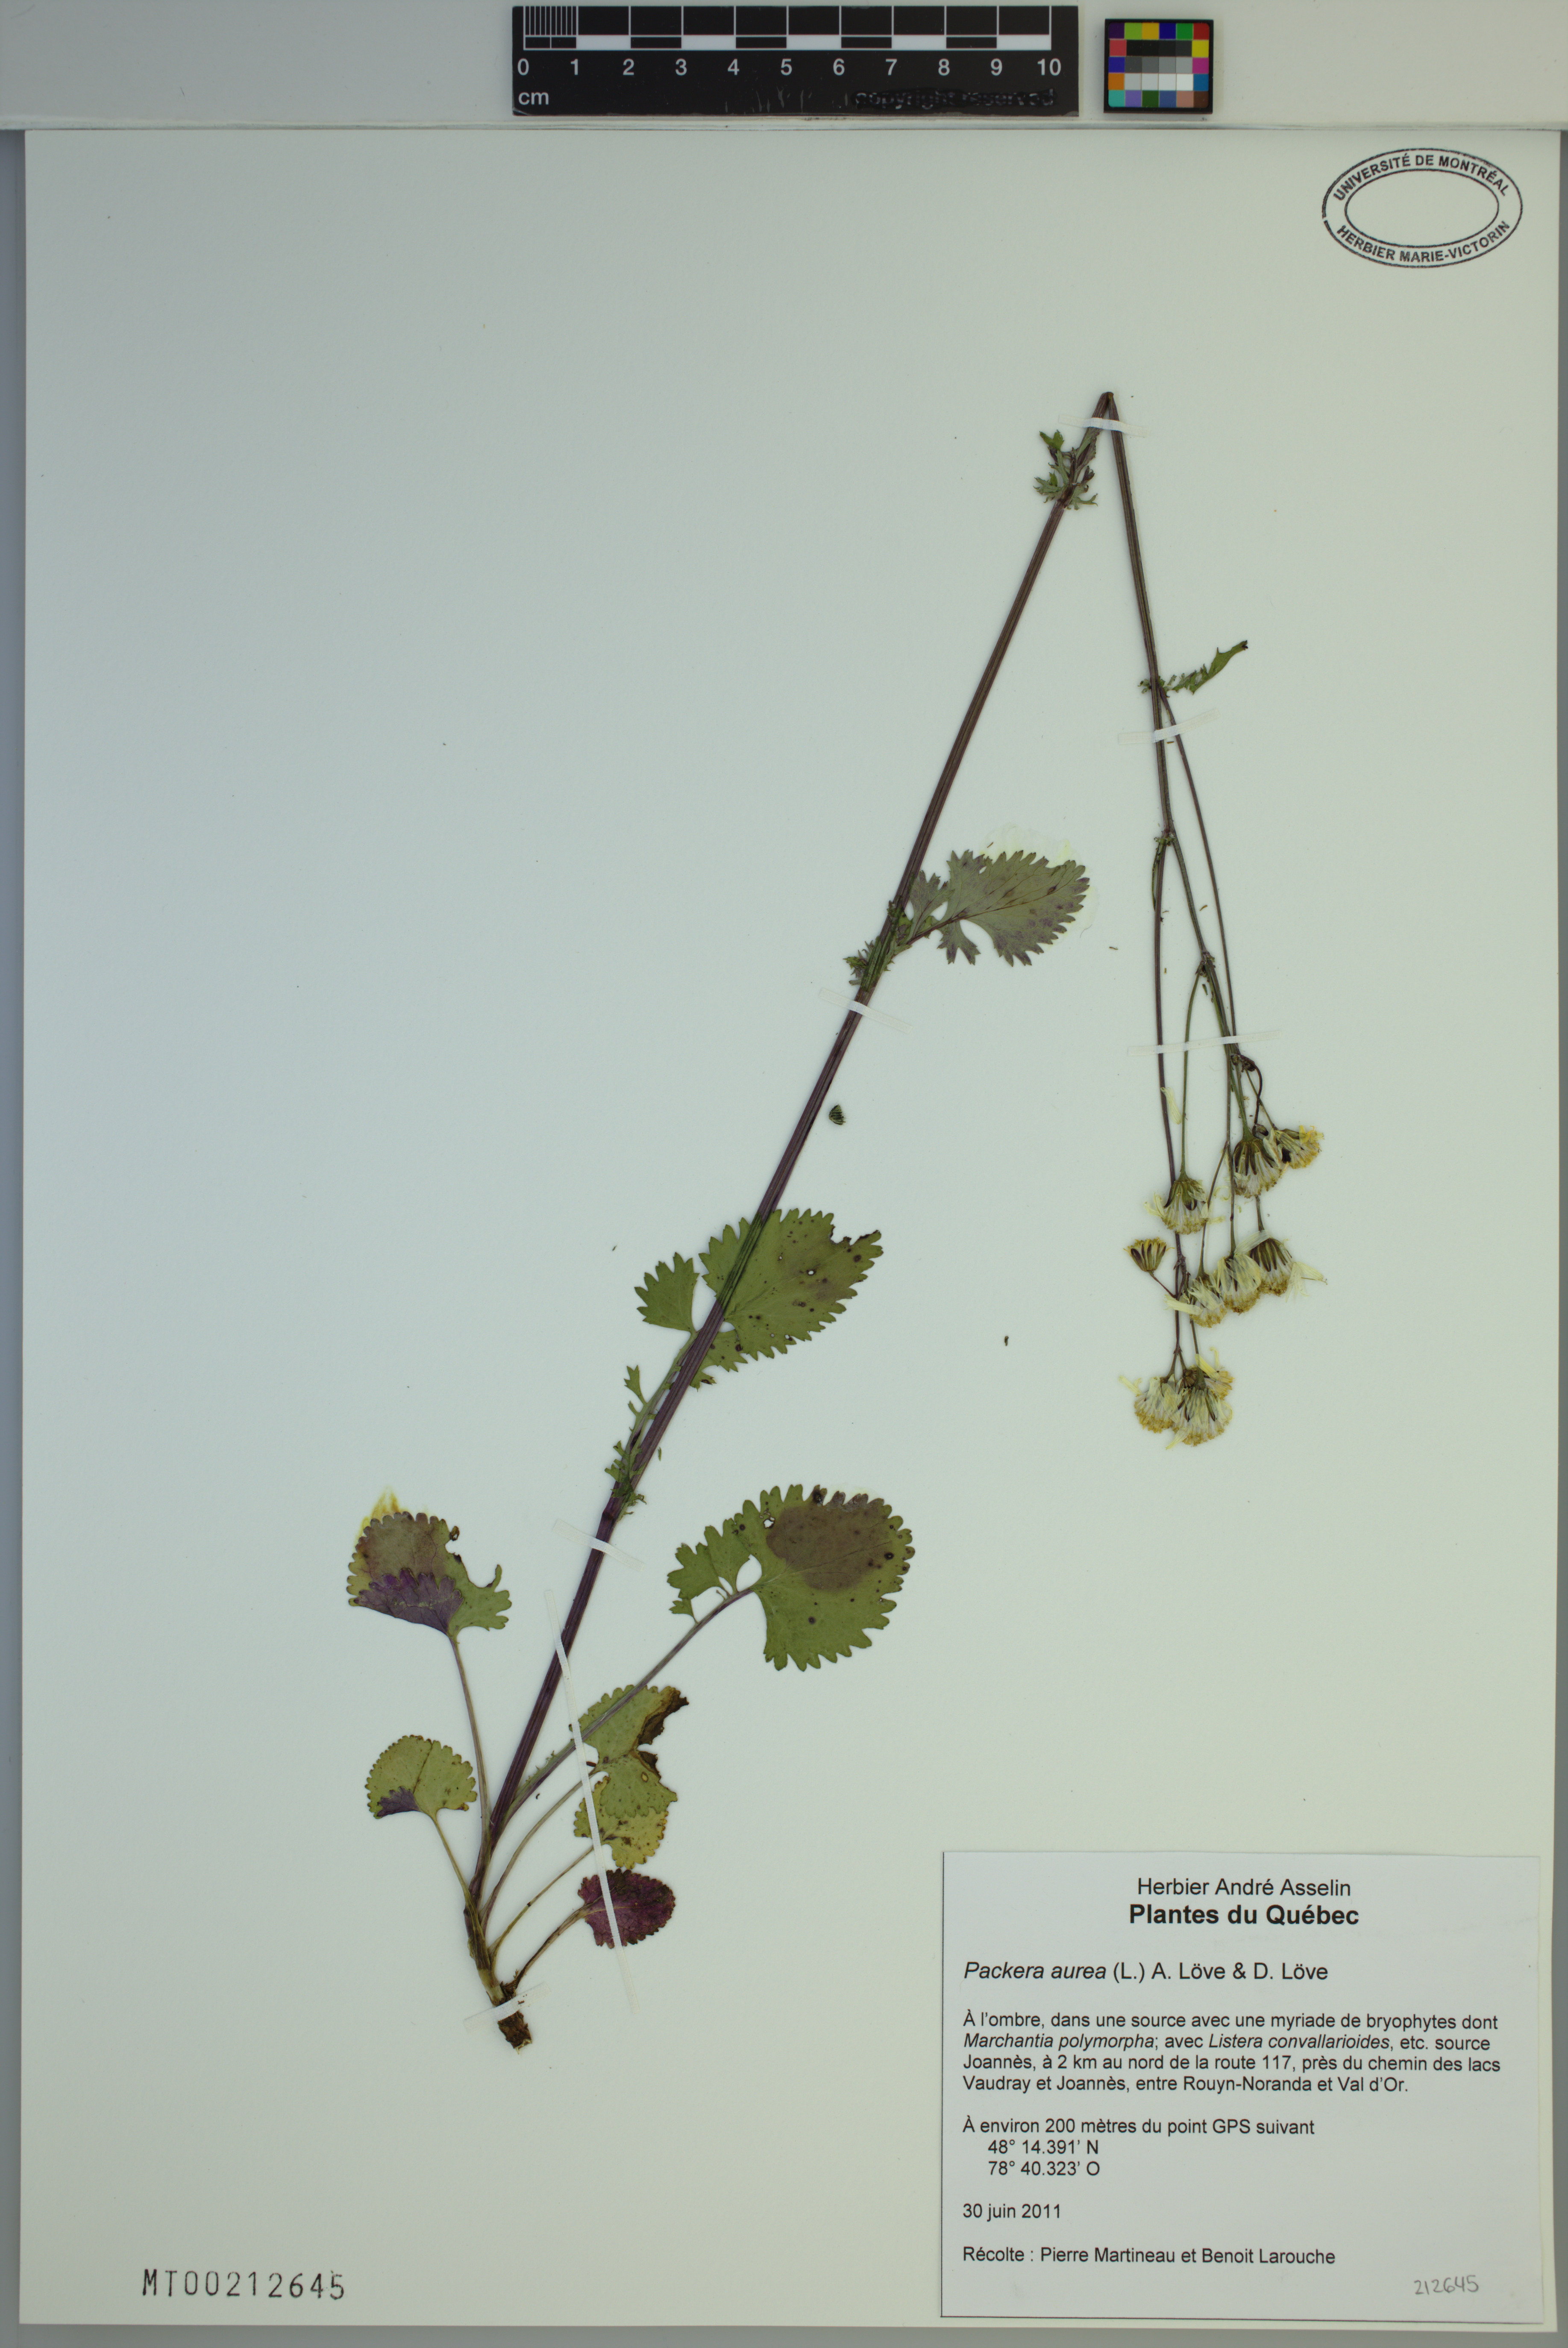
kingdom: Plantae
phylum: Tracheophyta
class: Magnoliopsida
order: Asterales
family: Asteraceae
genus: Packera
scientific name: Packera aurea
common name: Golden groundsel
